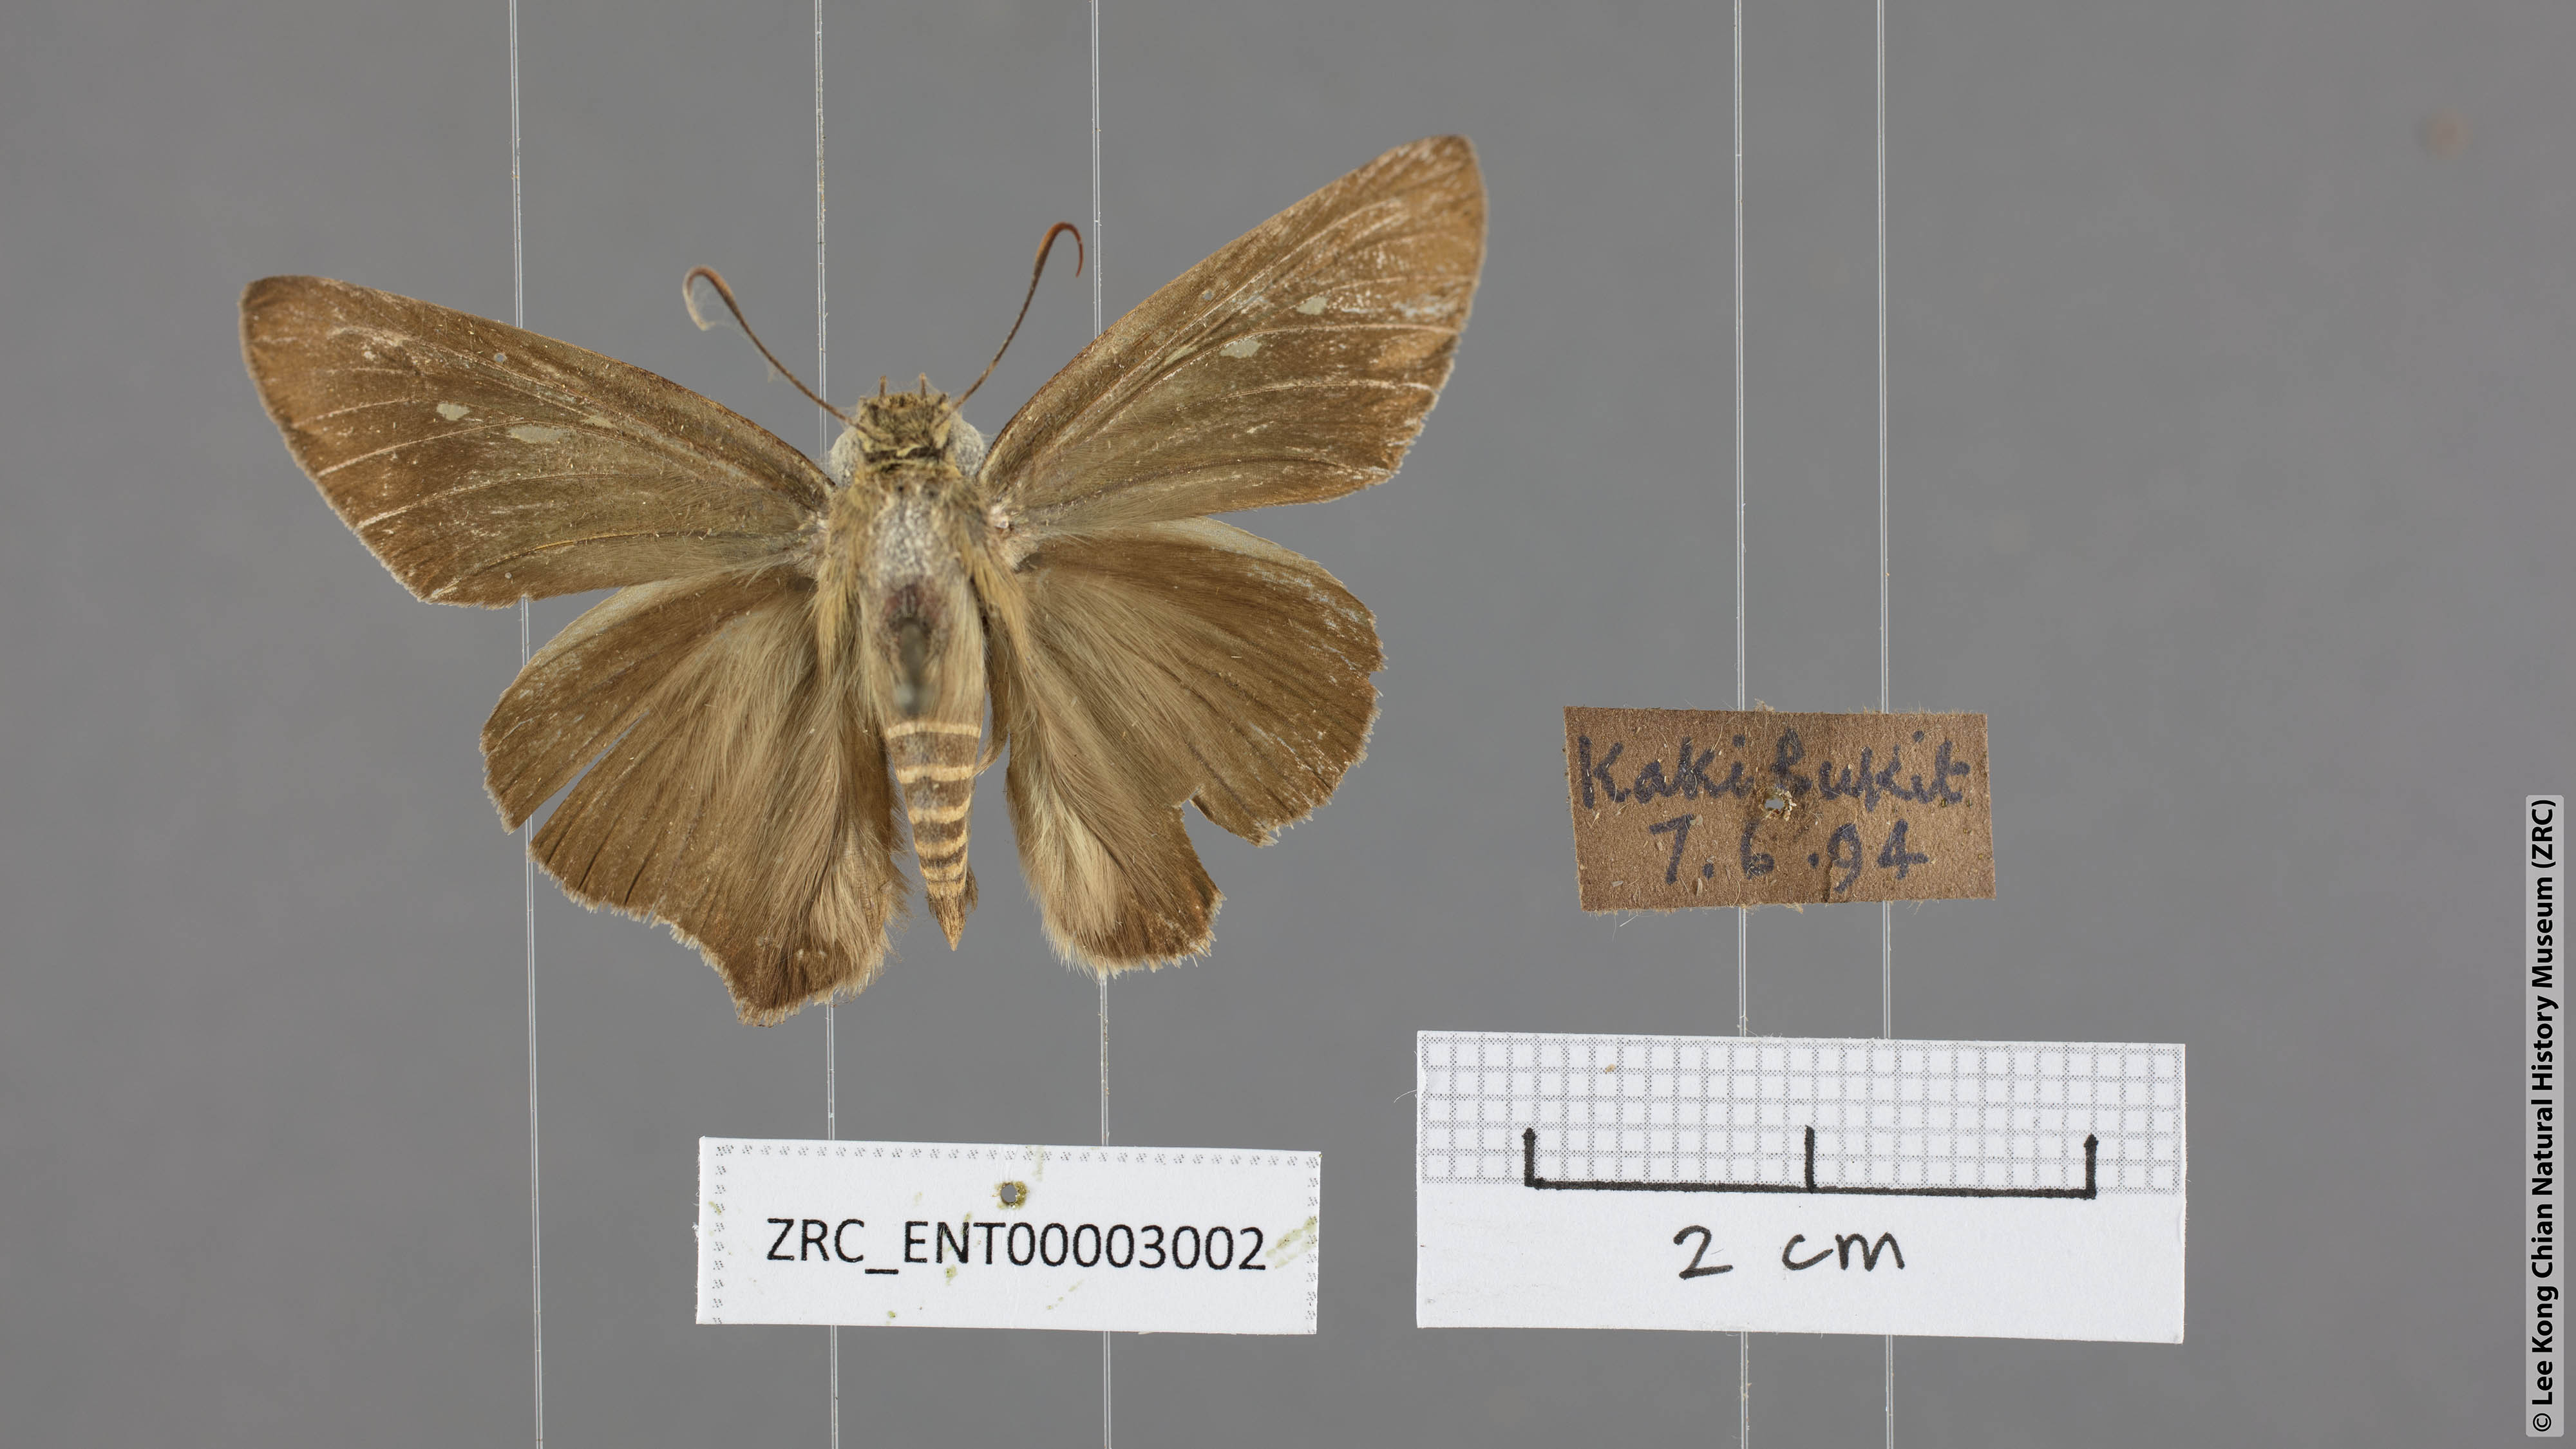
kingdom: Animalia
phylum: Arthropoda
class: Insecta
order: Lepidoptera
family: Hesperiidae
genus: Badamia
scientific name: Badamia exclamationis
